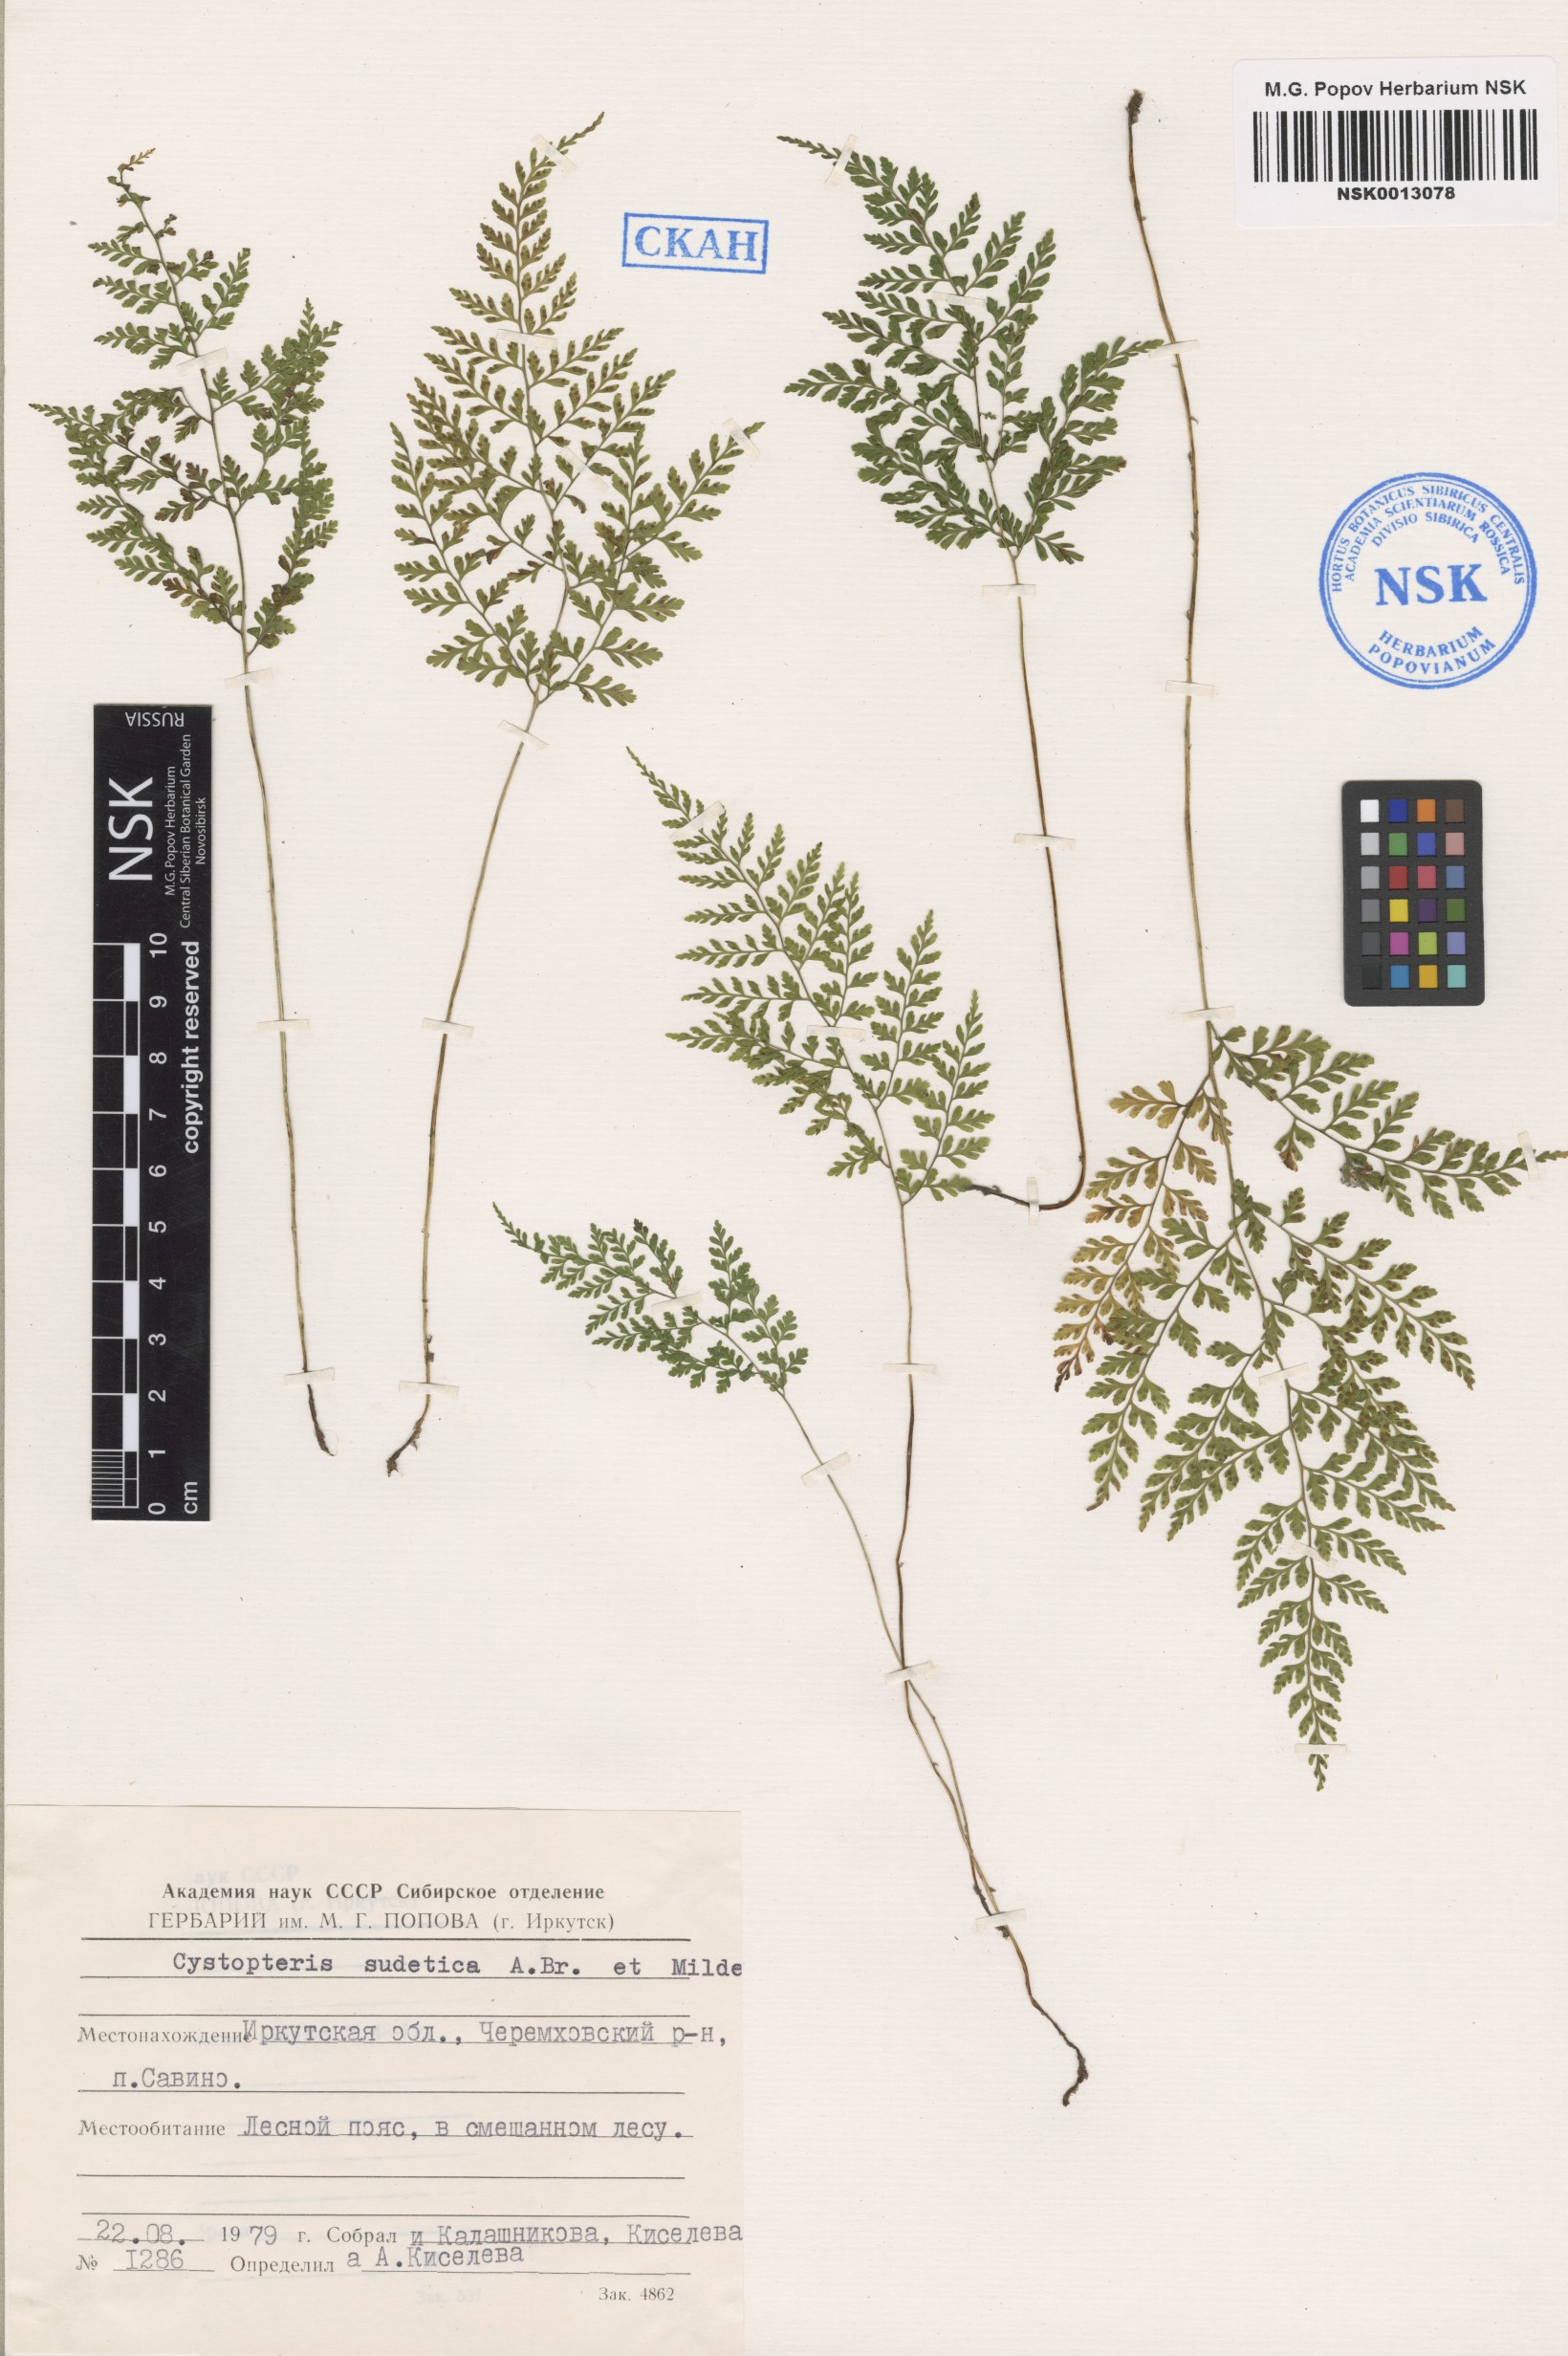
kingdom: Plantae
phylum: Tracheophyta
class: Polypodiopsida
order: Polypodiales
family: Cystopteridaceae
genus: Cystopteris
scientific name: Cystopteris sudetica
